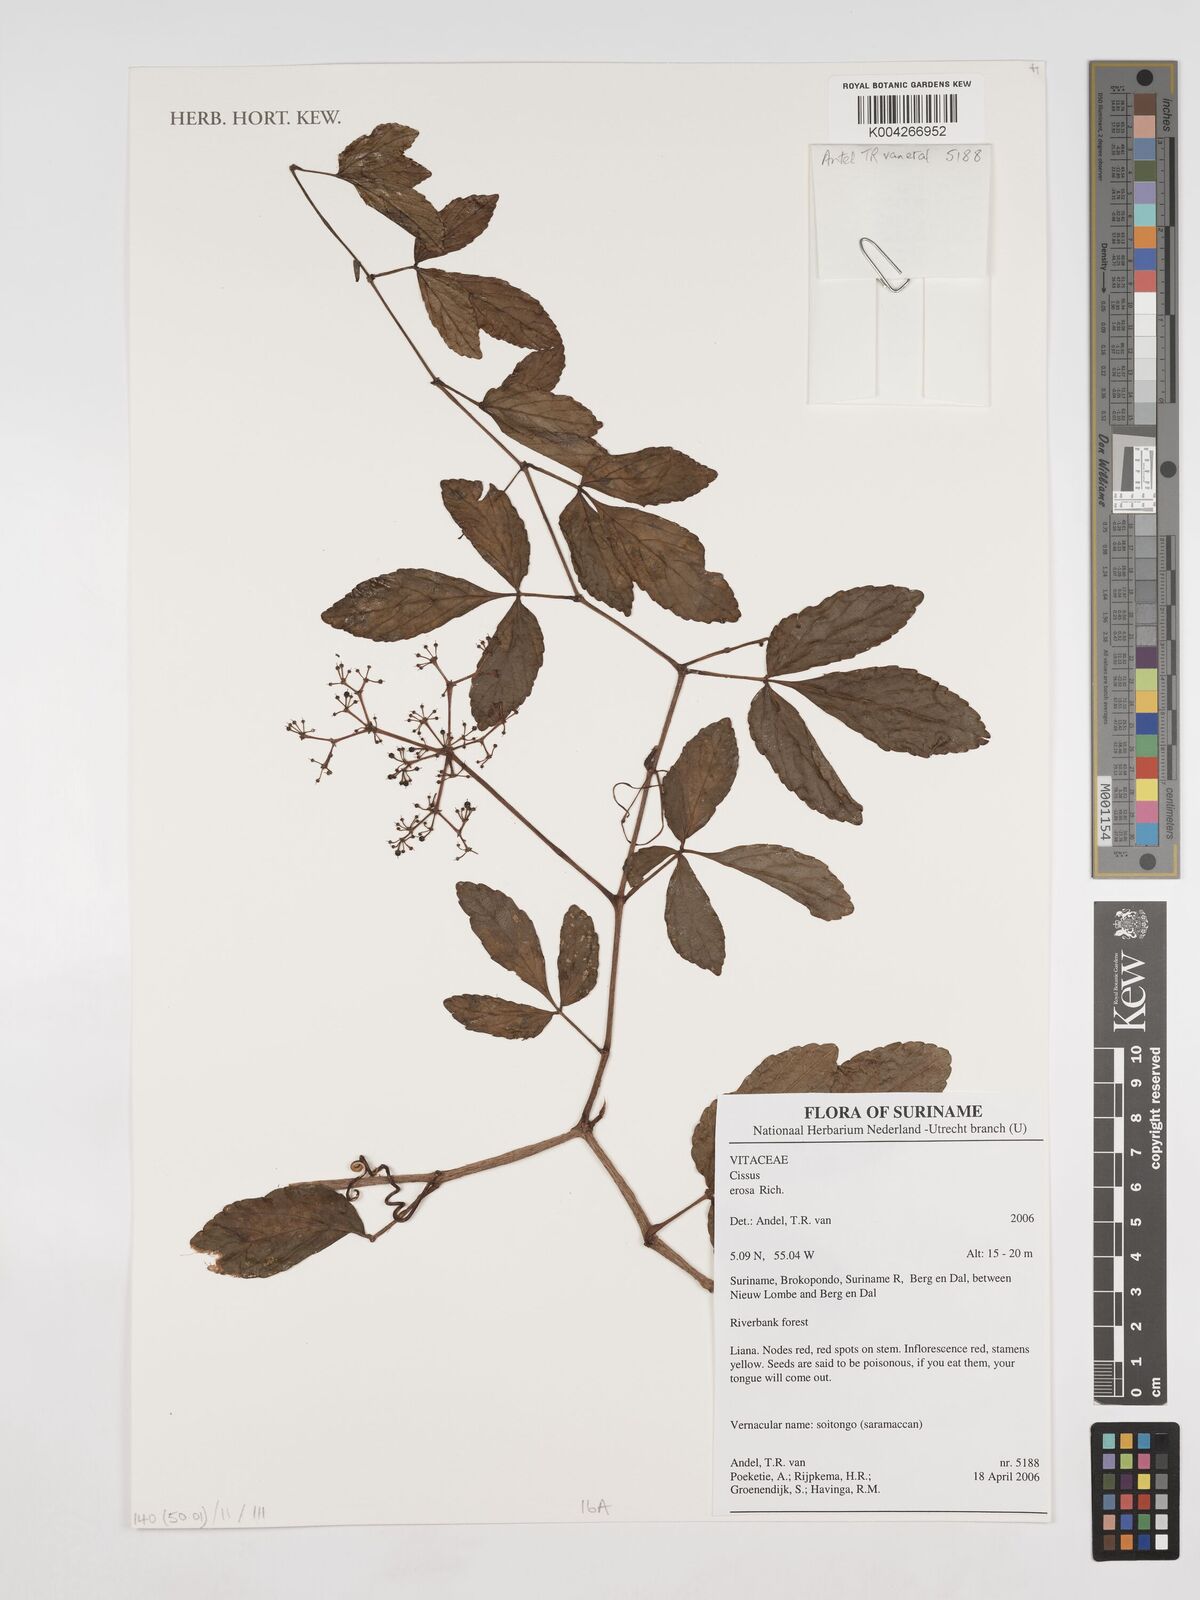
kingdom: Plantae
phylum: Tracheophyta
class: Magnoliopsida
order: Vitales
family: Vitaceae
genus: Cissus
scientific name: Cissus erosa
